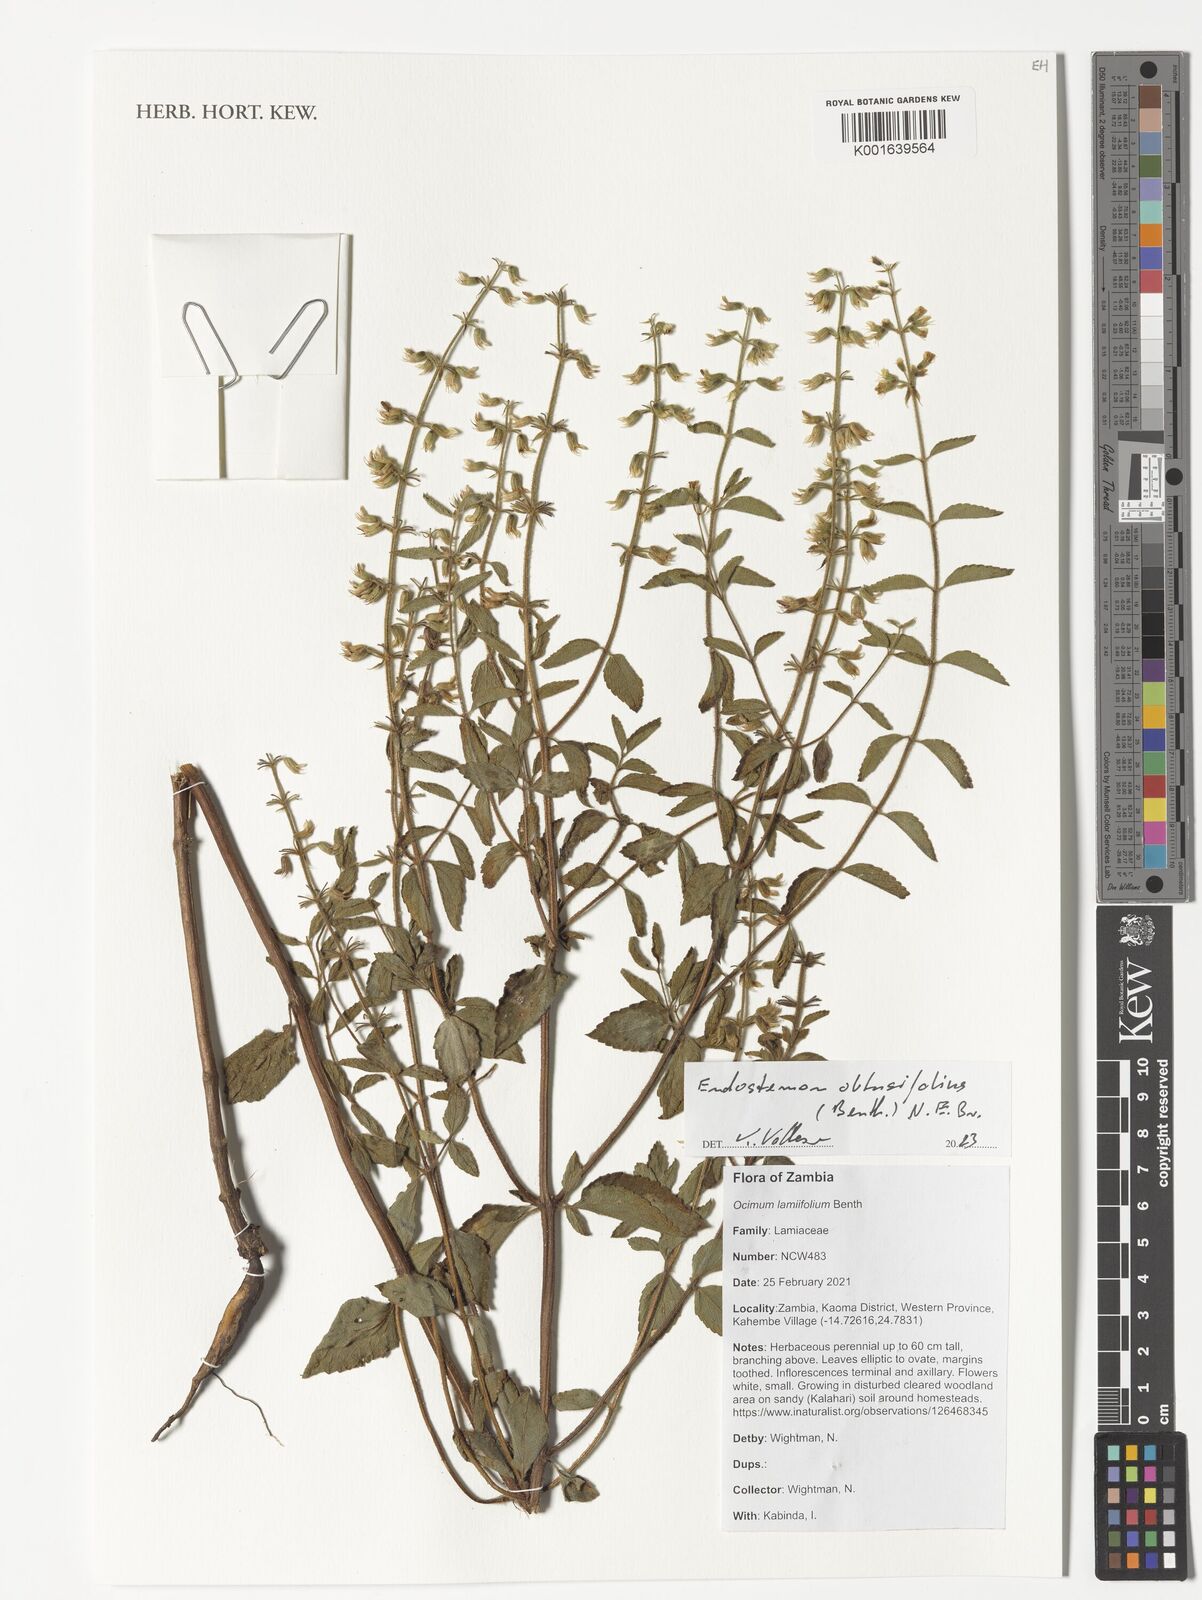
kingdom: Plantae
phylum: Tracheophyta
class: Magnoliopsida
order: Lamiales
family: Lamiaceae
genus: Endostemon
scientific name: Endostemon obtusifolius
